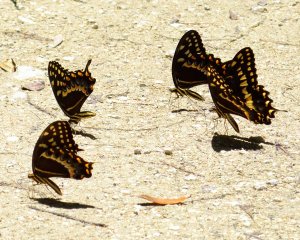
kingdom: Animalia
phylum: Arthropoda
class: Insecta
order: Lepidoptera
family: Papilionidae
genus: Pterourus
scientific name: Pterourus palamedes
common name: Palamedes Swallowtail
